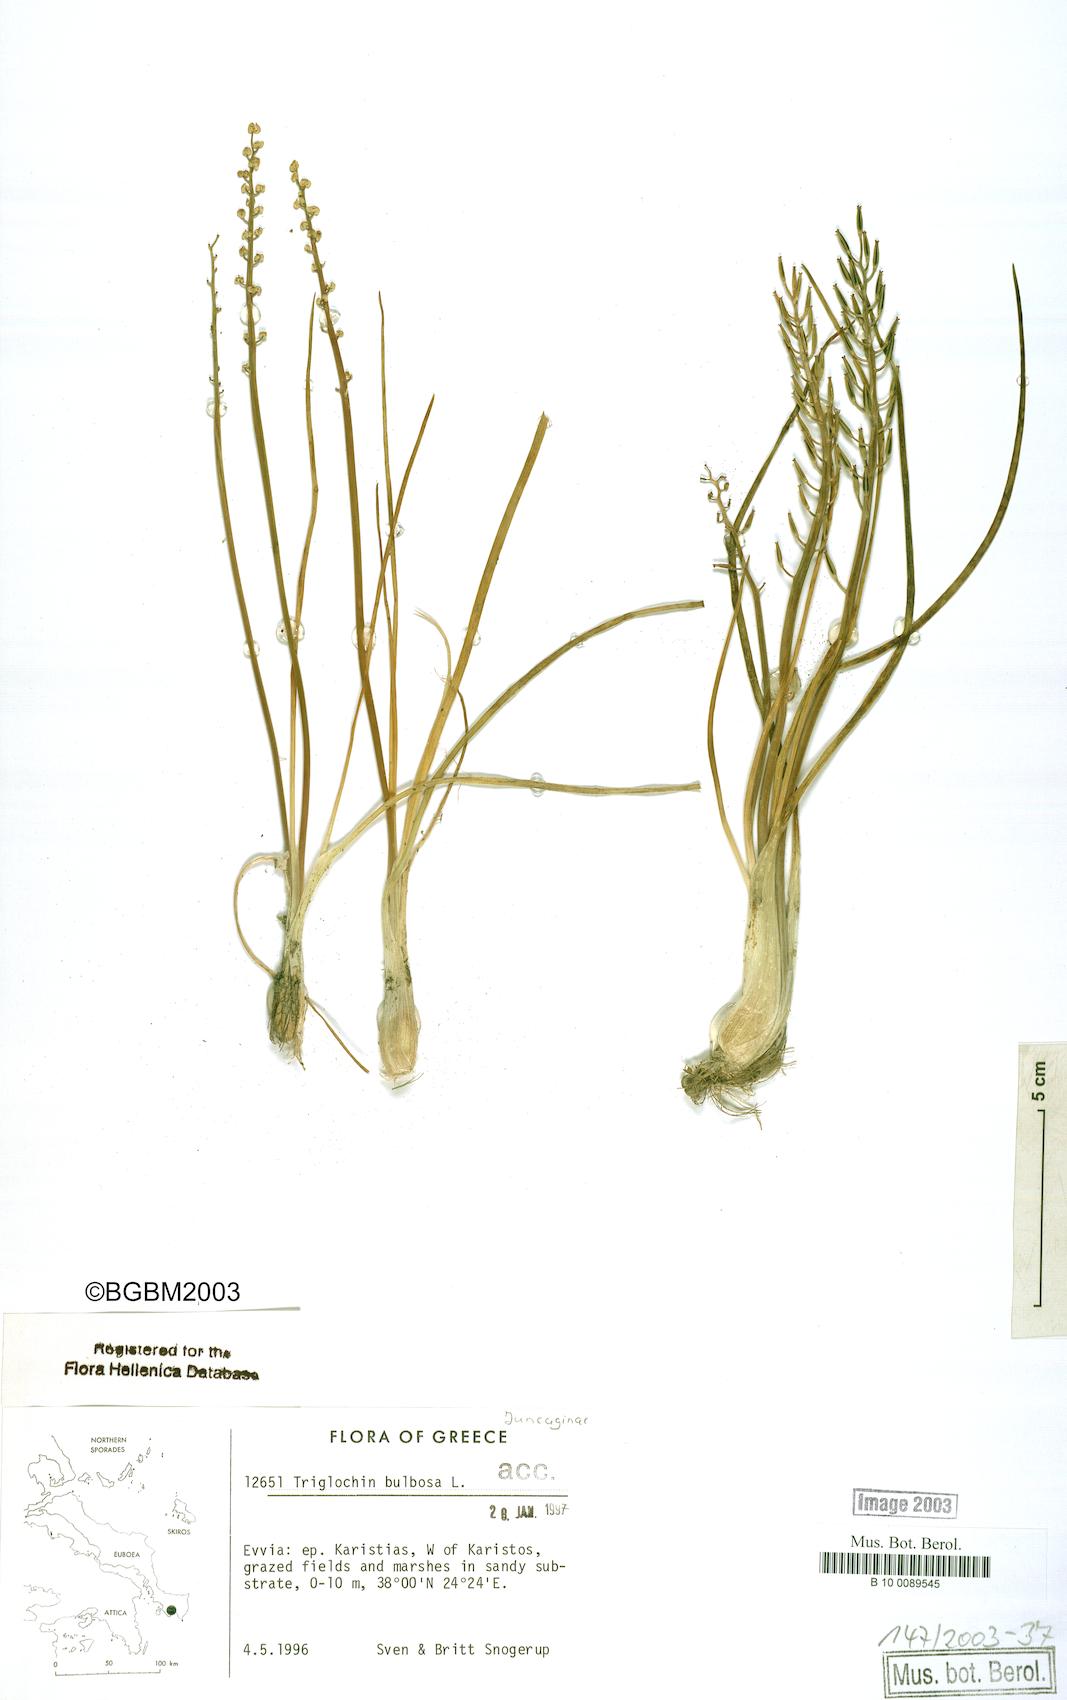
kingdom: Plantae
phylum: Tracheophyta
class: Liliopsida
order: Alismatales
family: Juncaginaceae
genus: Triglochin
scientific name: Triglochin bulbosa
